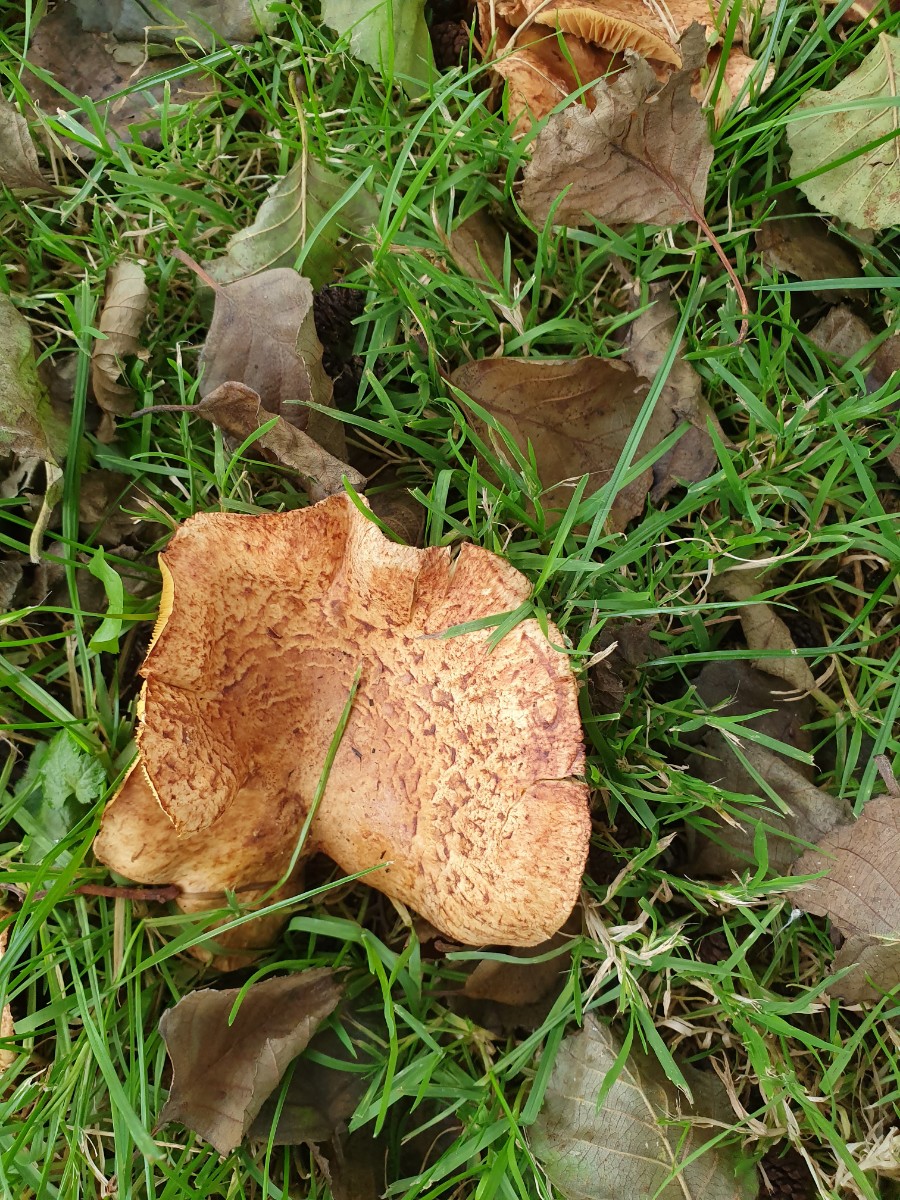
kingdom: Fungi
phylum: Basidiomycota
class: Agaricomycetes
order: Boletales
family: Paxillaceae
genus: Paxillus
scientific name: Paxillus rubicundulus
